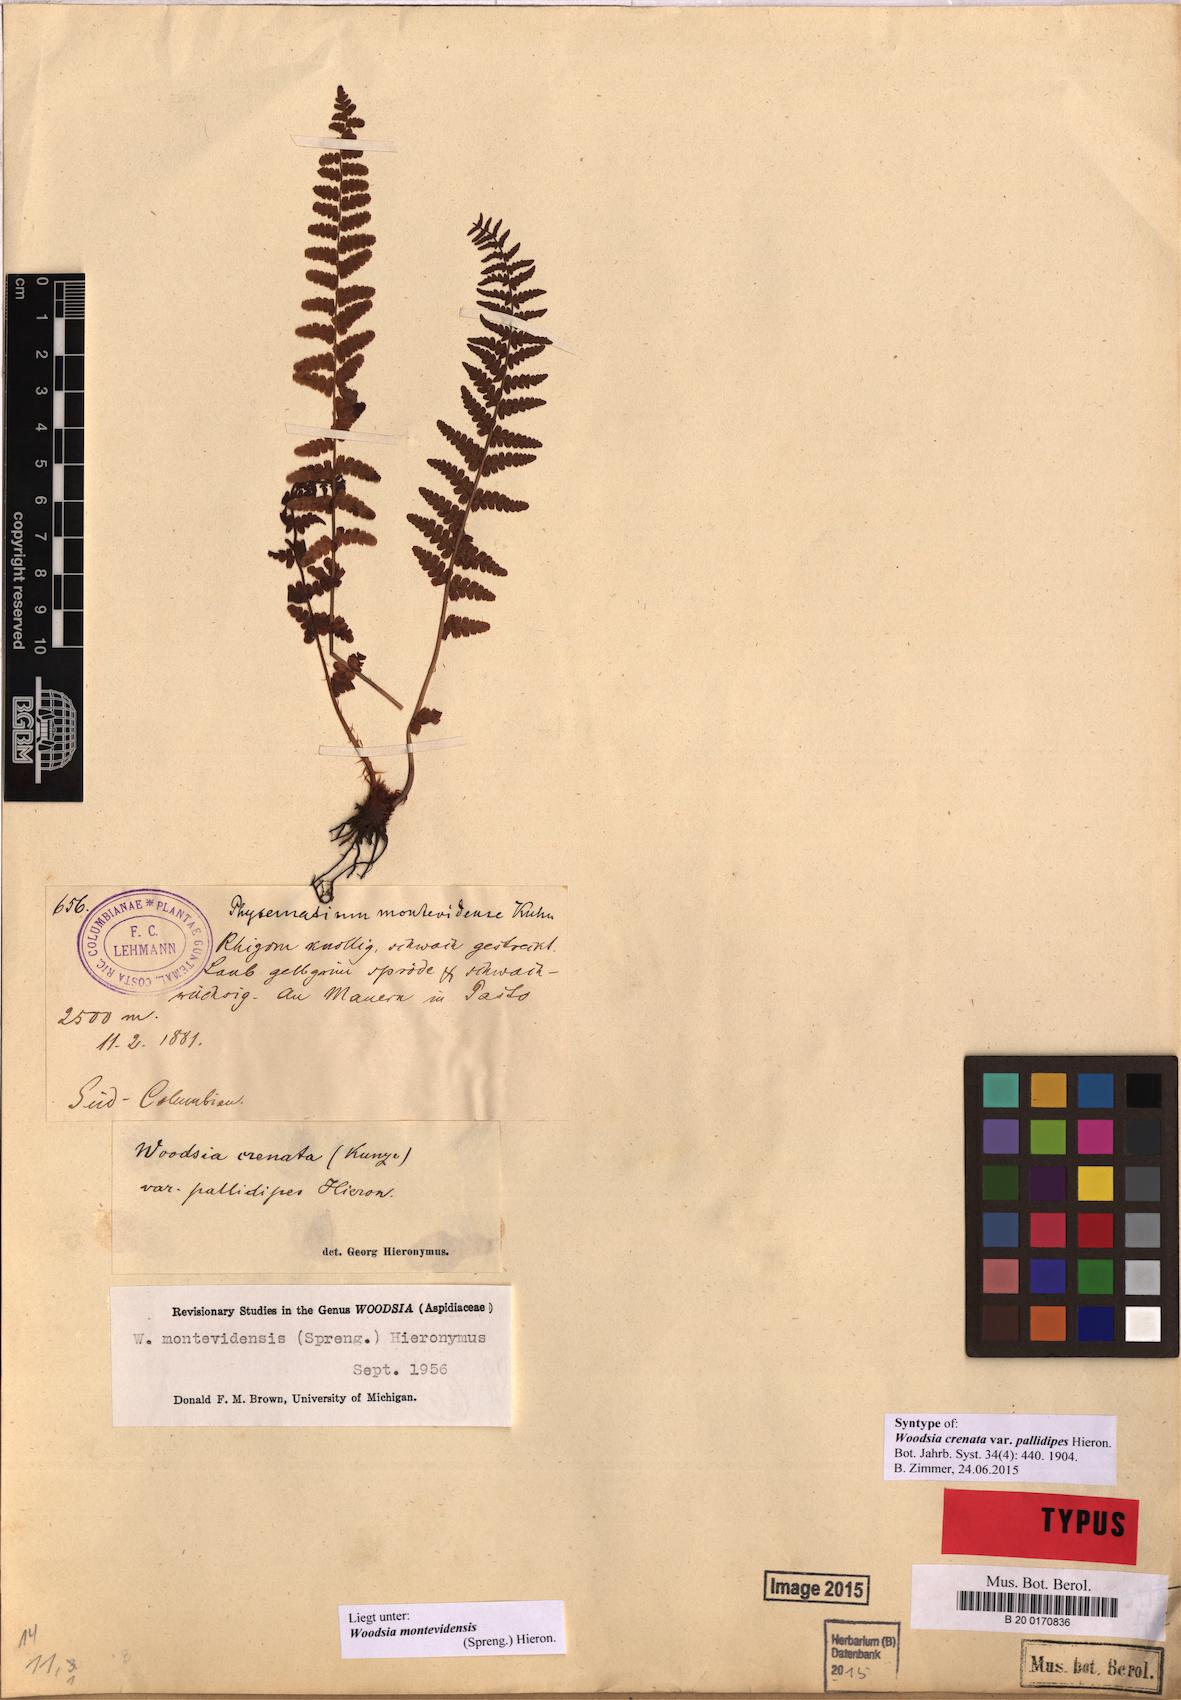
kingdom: Plantae
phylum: Tracheophyta
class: Polypodiopsida
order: Polypodiales
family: Woodsiaceae
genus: Physematium
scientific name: Physematium montevidense
